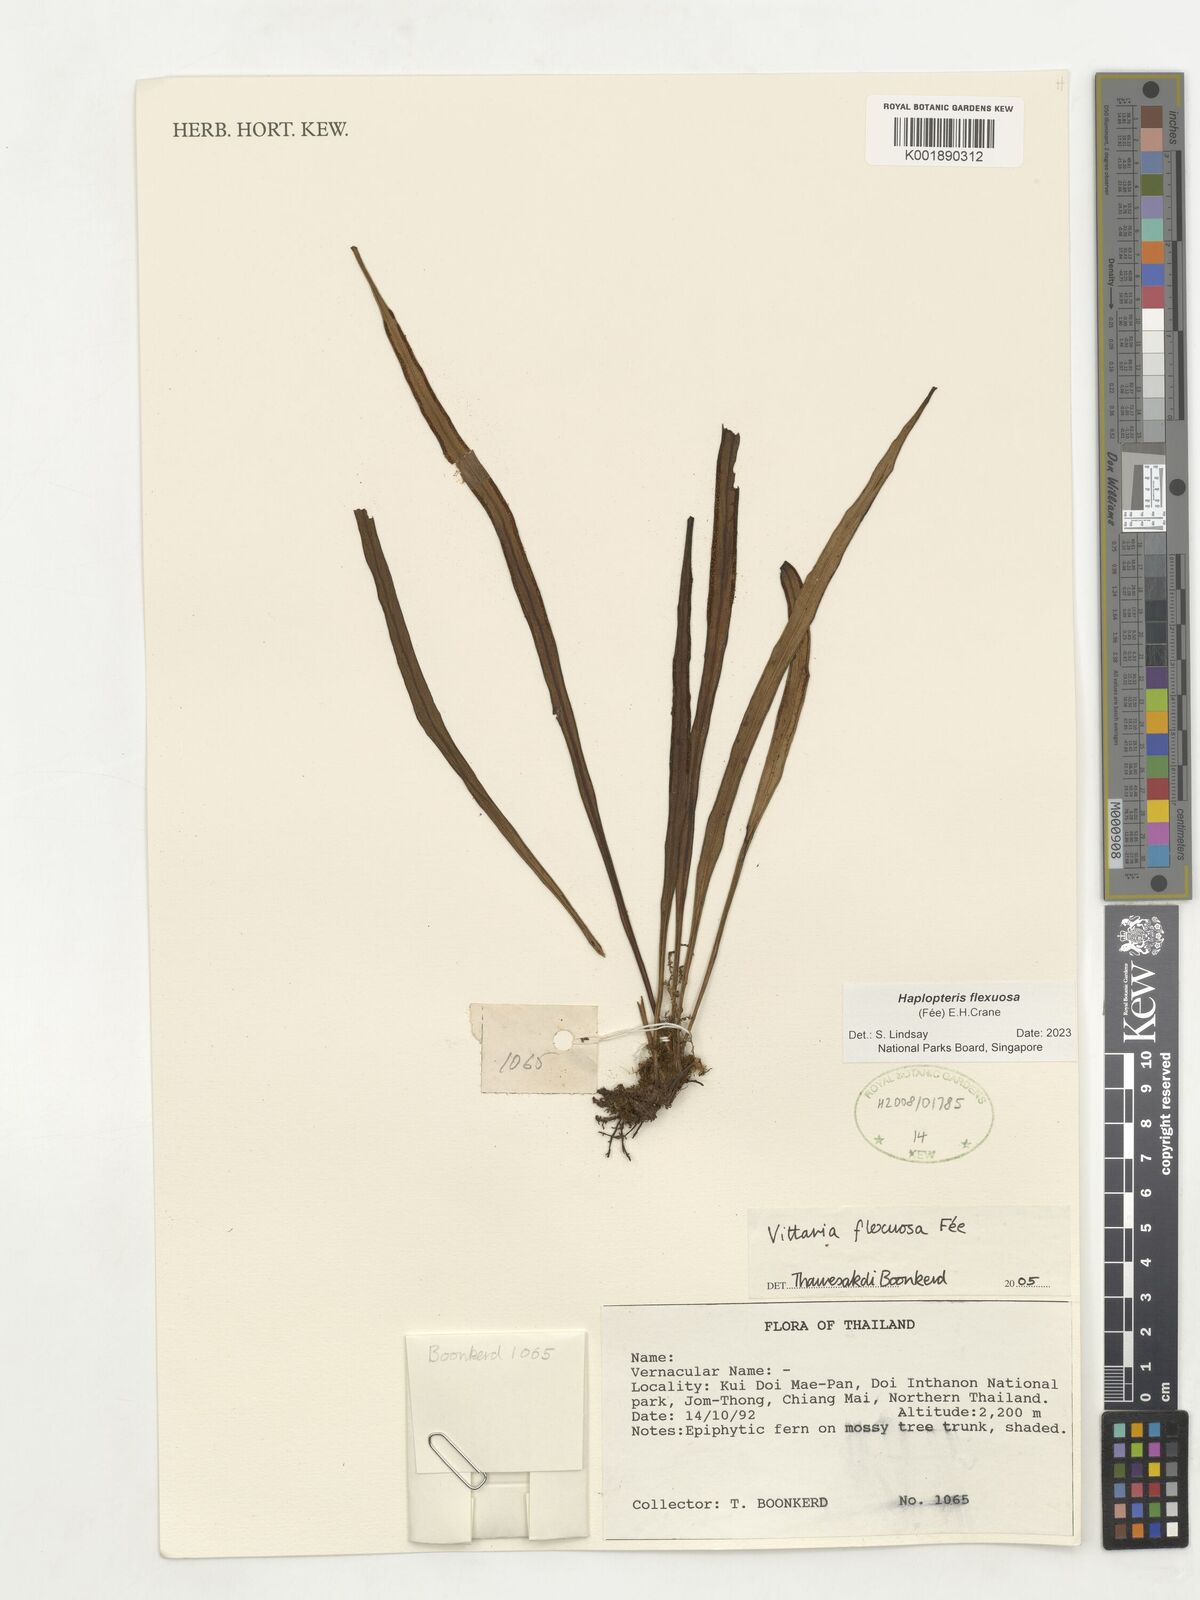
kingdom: Plantae
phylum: Tracheophyta
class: Polypodiopsida
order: Polypodiales
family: Pteridaceae
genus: Haplopteris
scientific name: Haplopteris flexuosa
